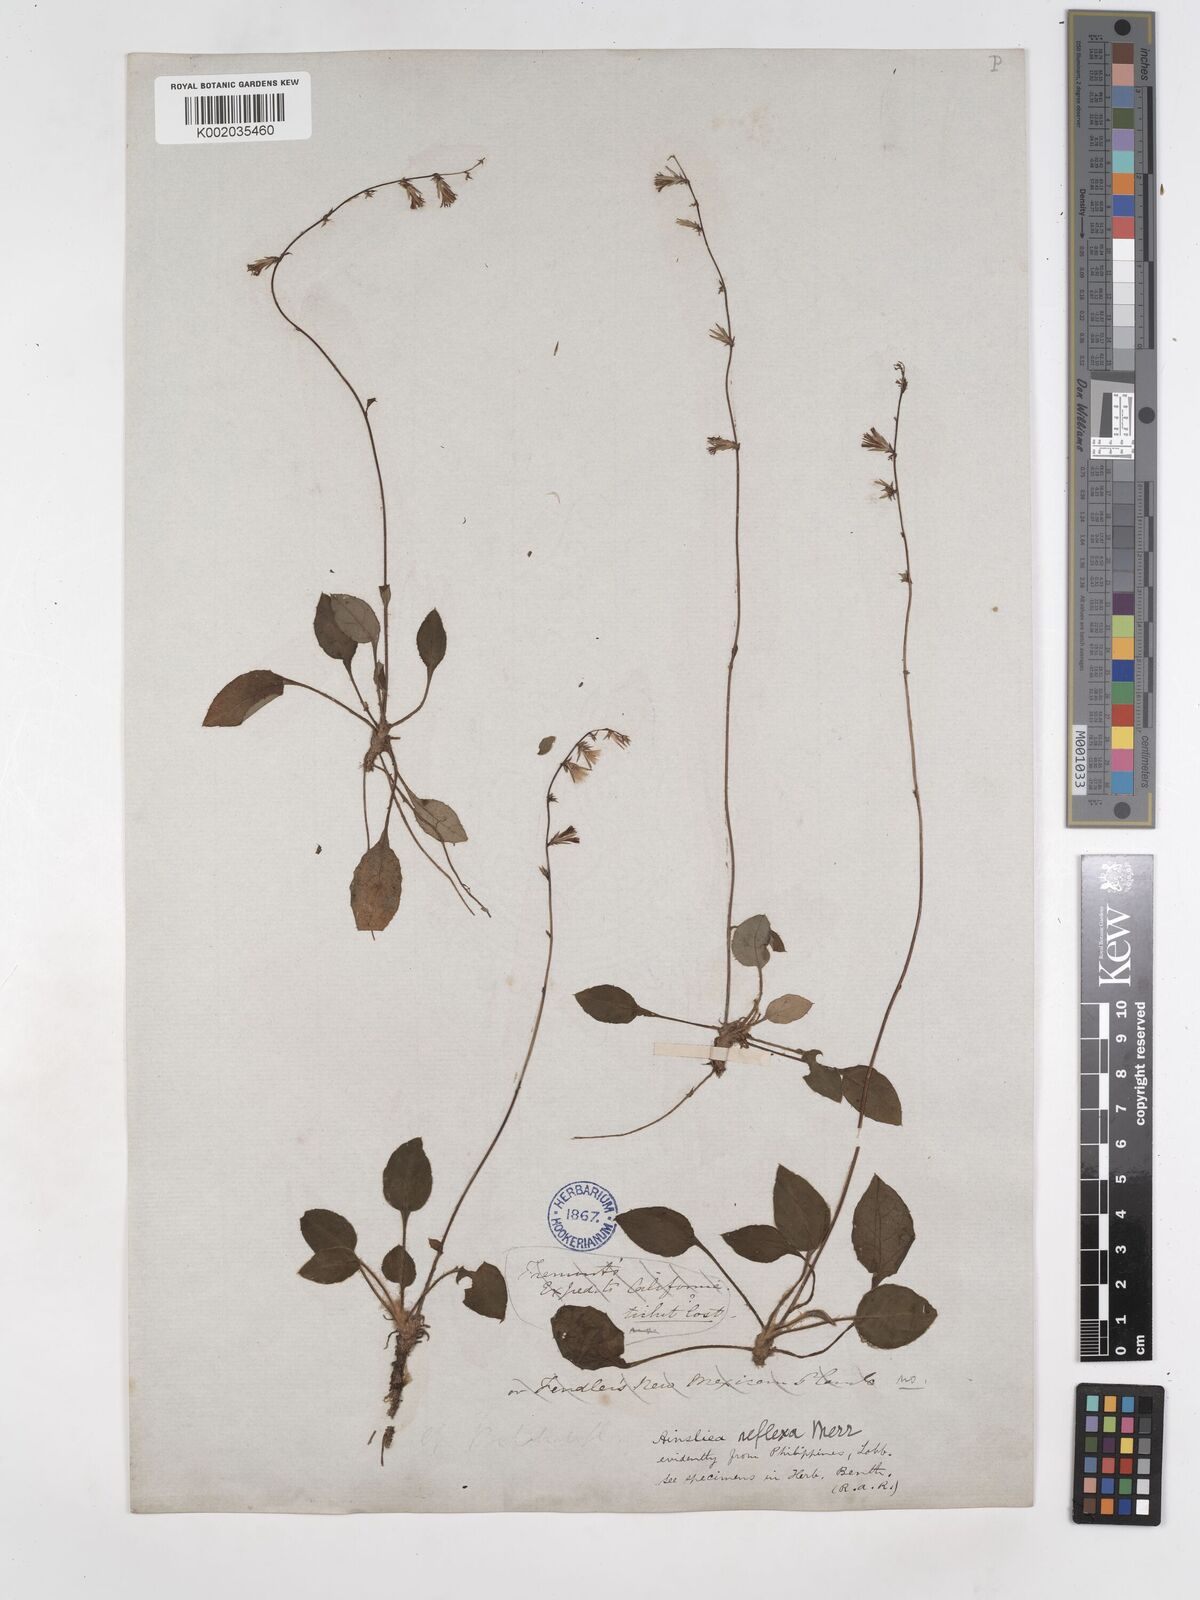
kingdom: Plantae
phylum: Tracheophyta
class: Magnoliopsida
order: Asterales
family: Asteraceae
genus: Ainsliaea
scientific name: Ainsliaea reflexa
